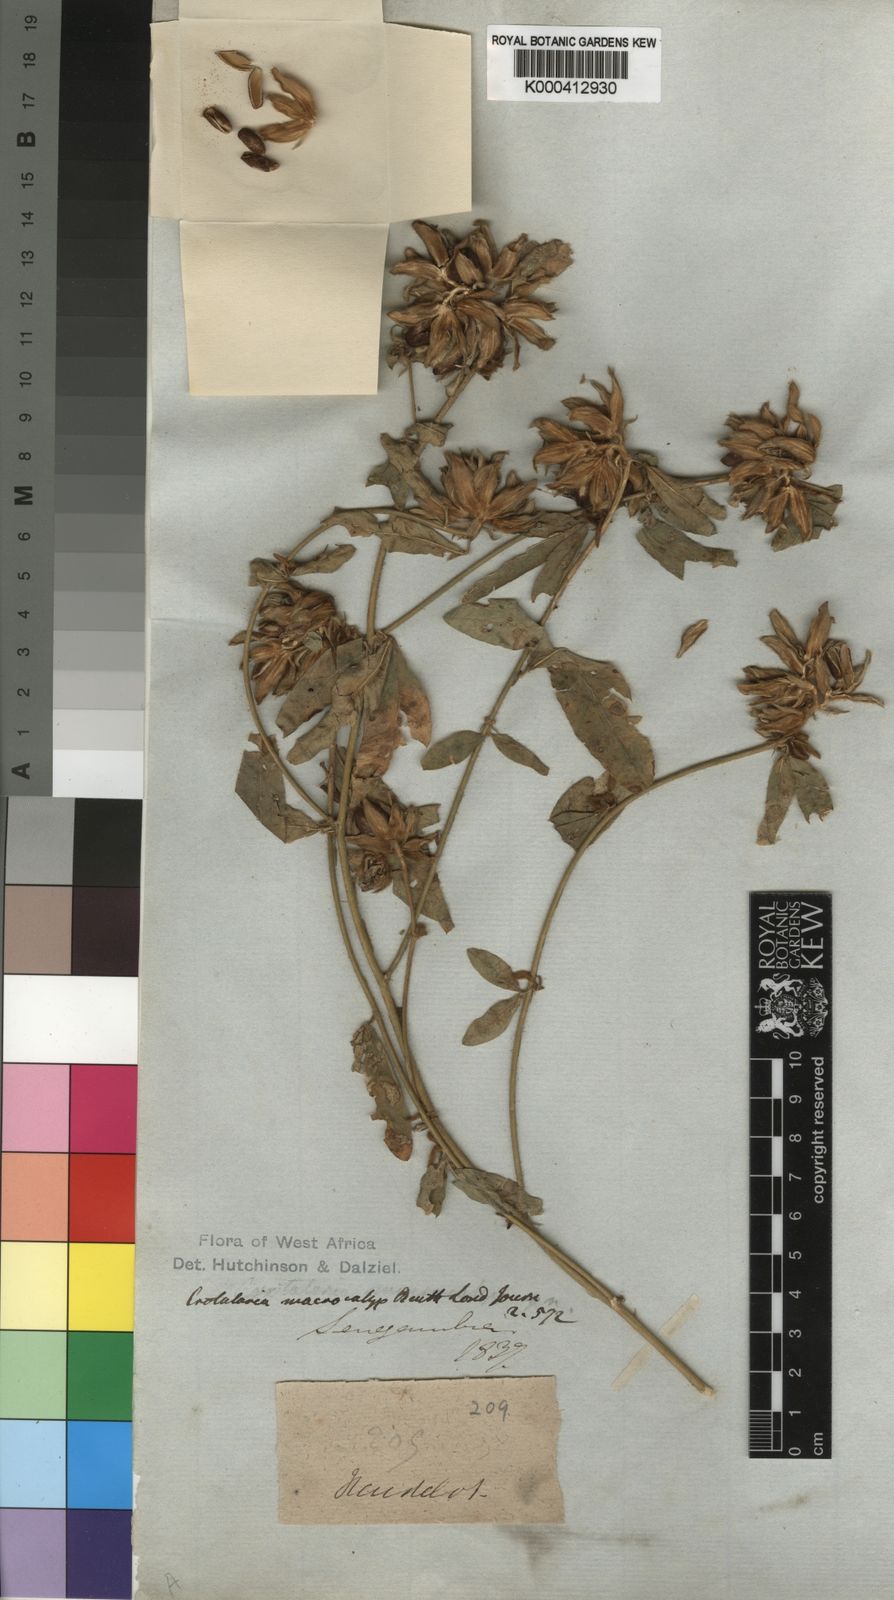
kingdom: Plantae
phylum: Tracheophyta
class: Magnoliopsida
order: Fabales
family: Fabaceae
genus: Crotalaria
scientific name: Crotalaria macrocalyx
